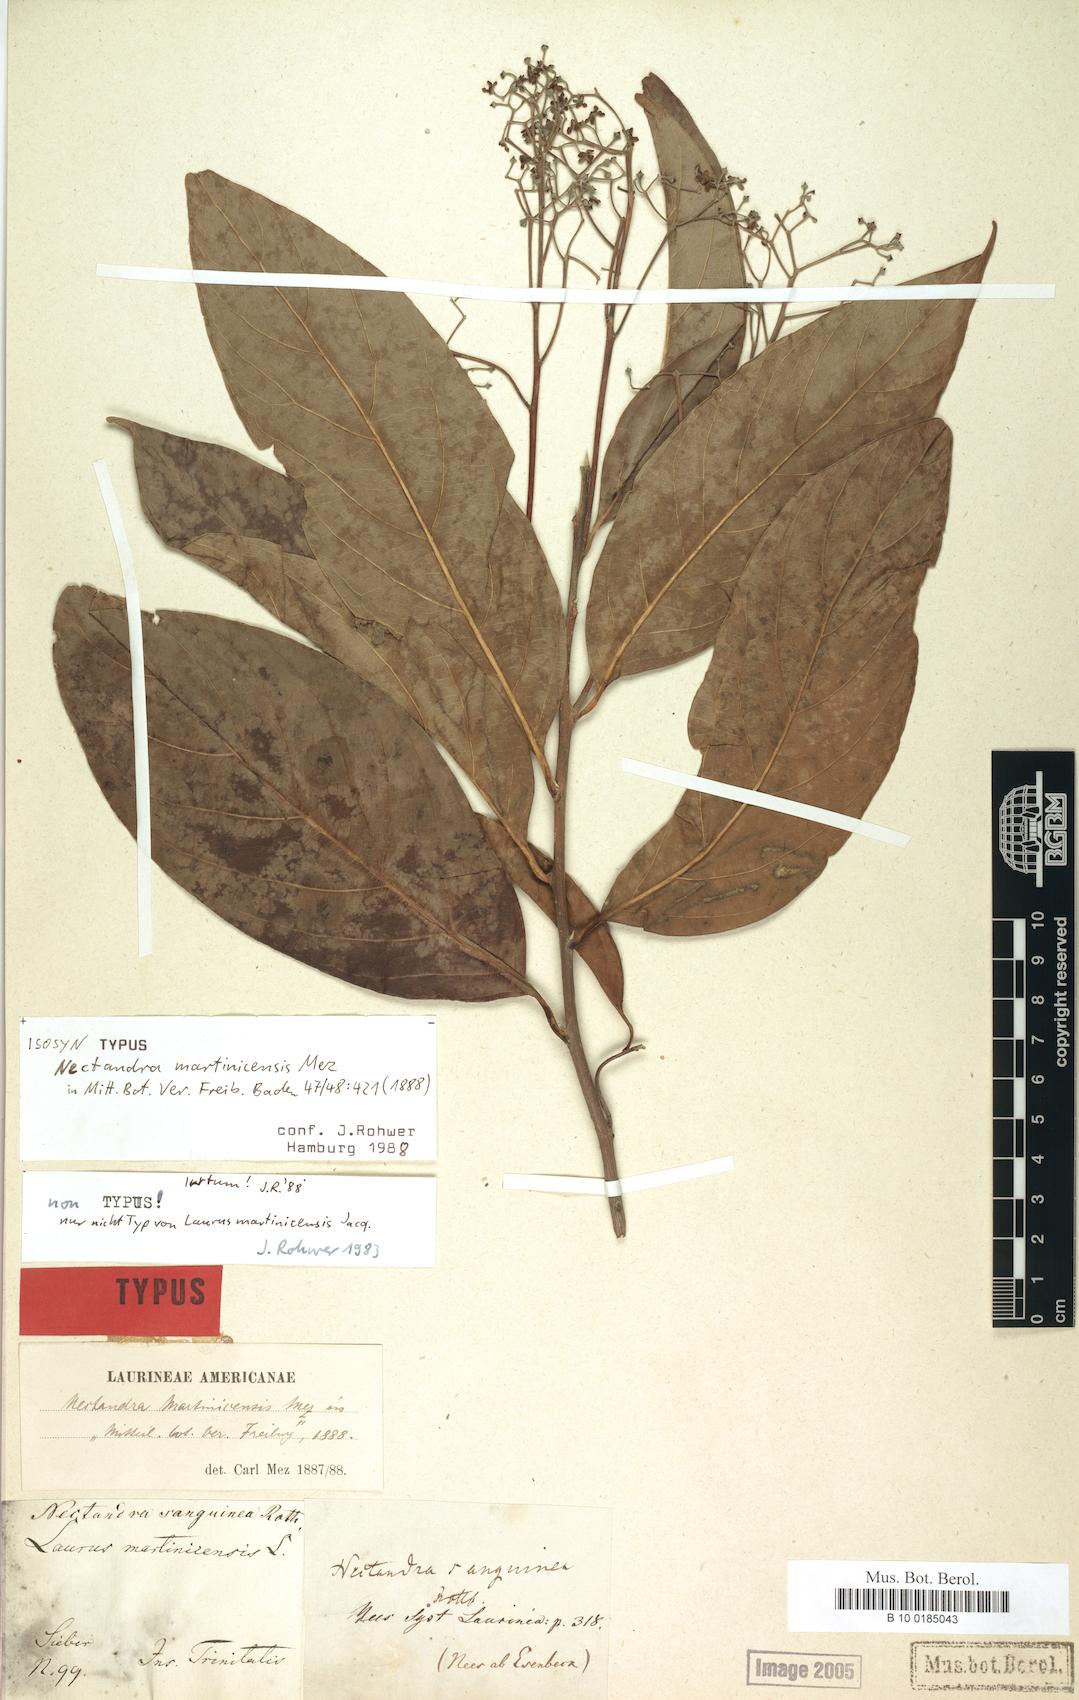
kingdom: Plantae
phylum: Tracheophyta
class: Magnoliopsida
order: Laurales
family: Lauraceae
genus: Damburneya
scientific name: Damburneya martinicensis
